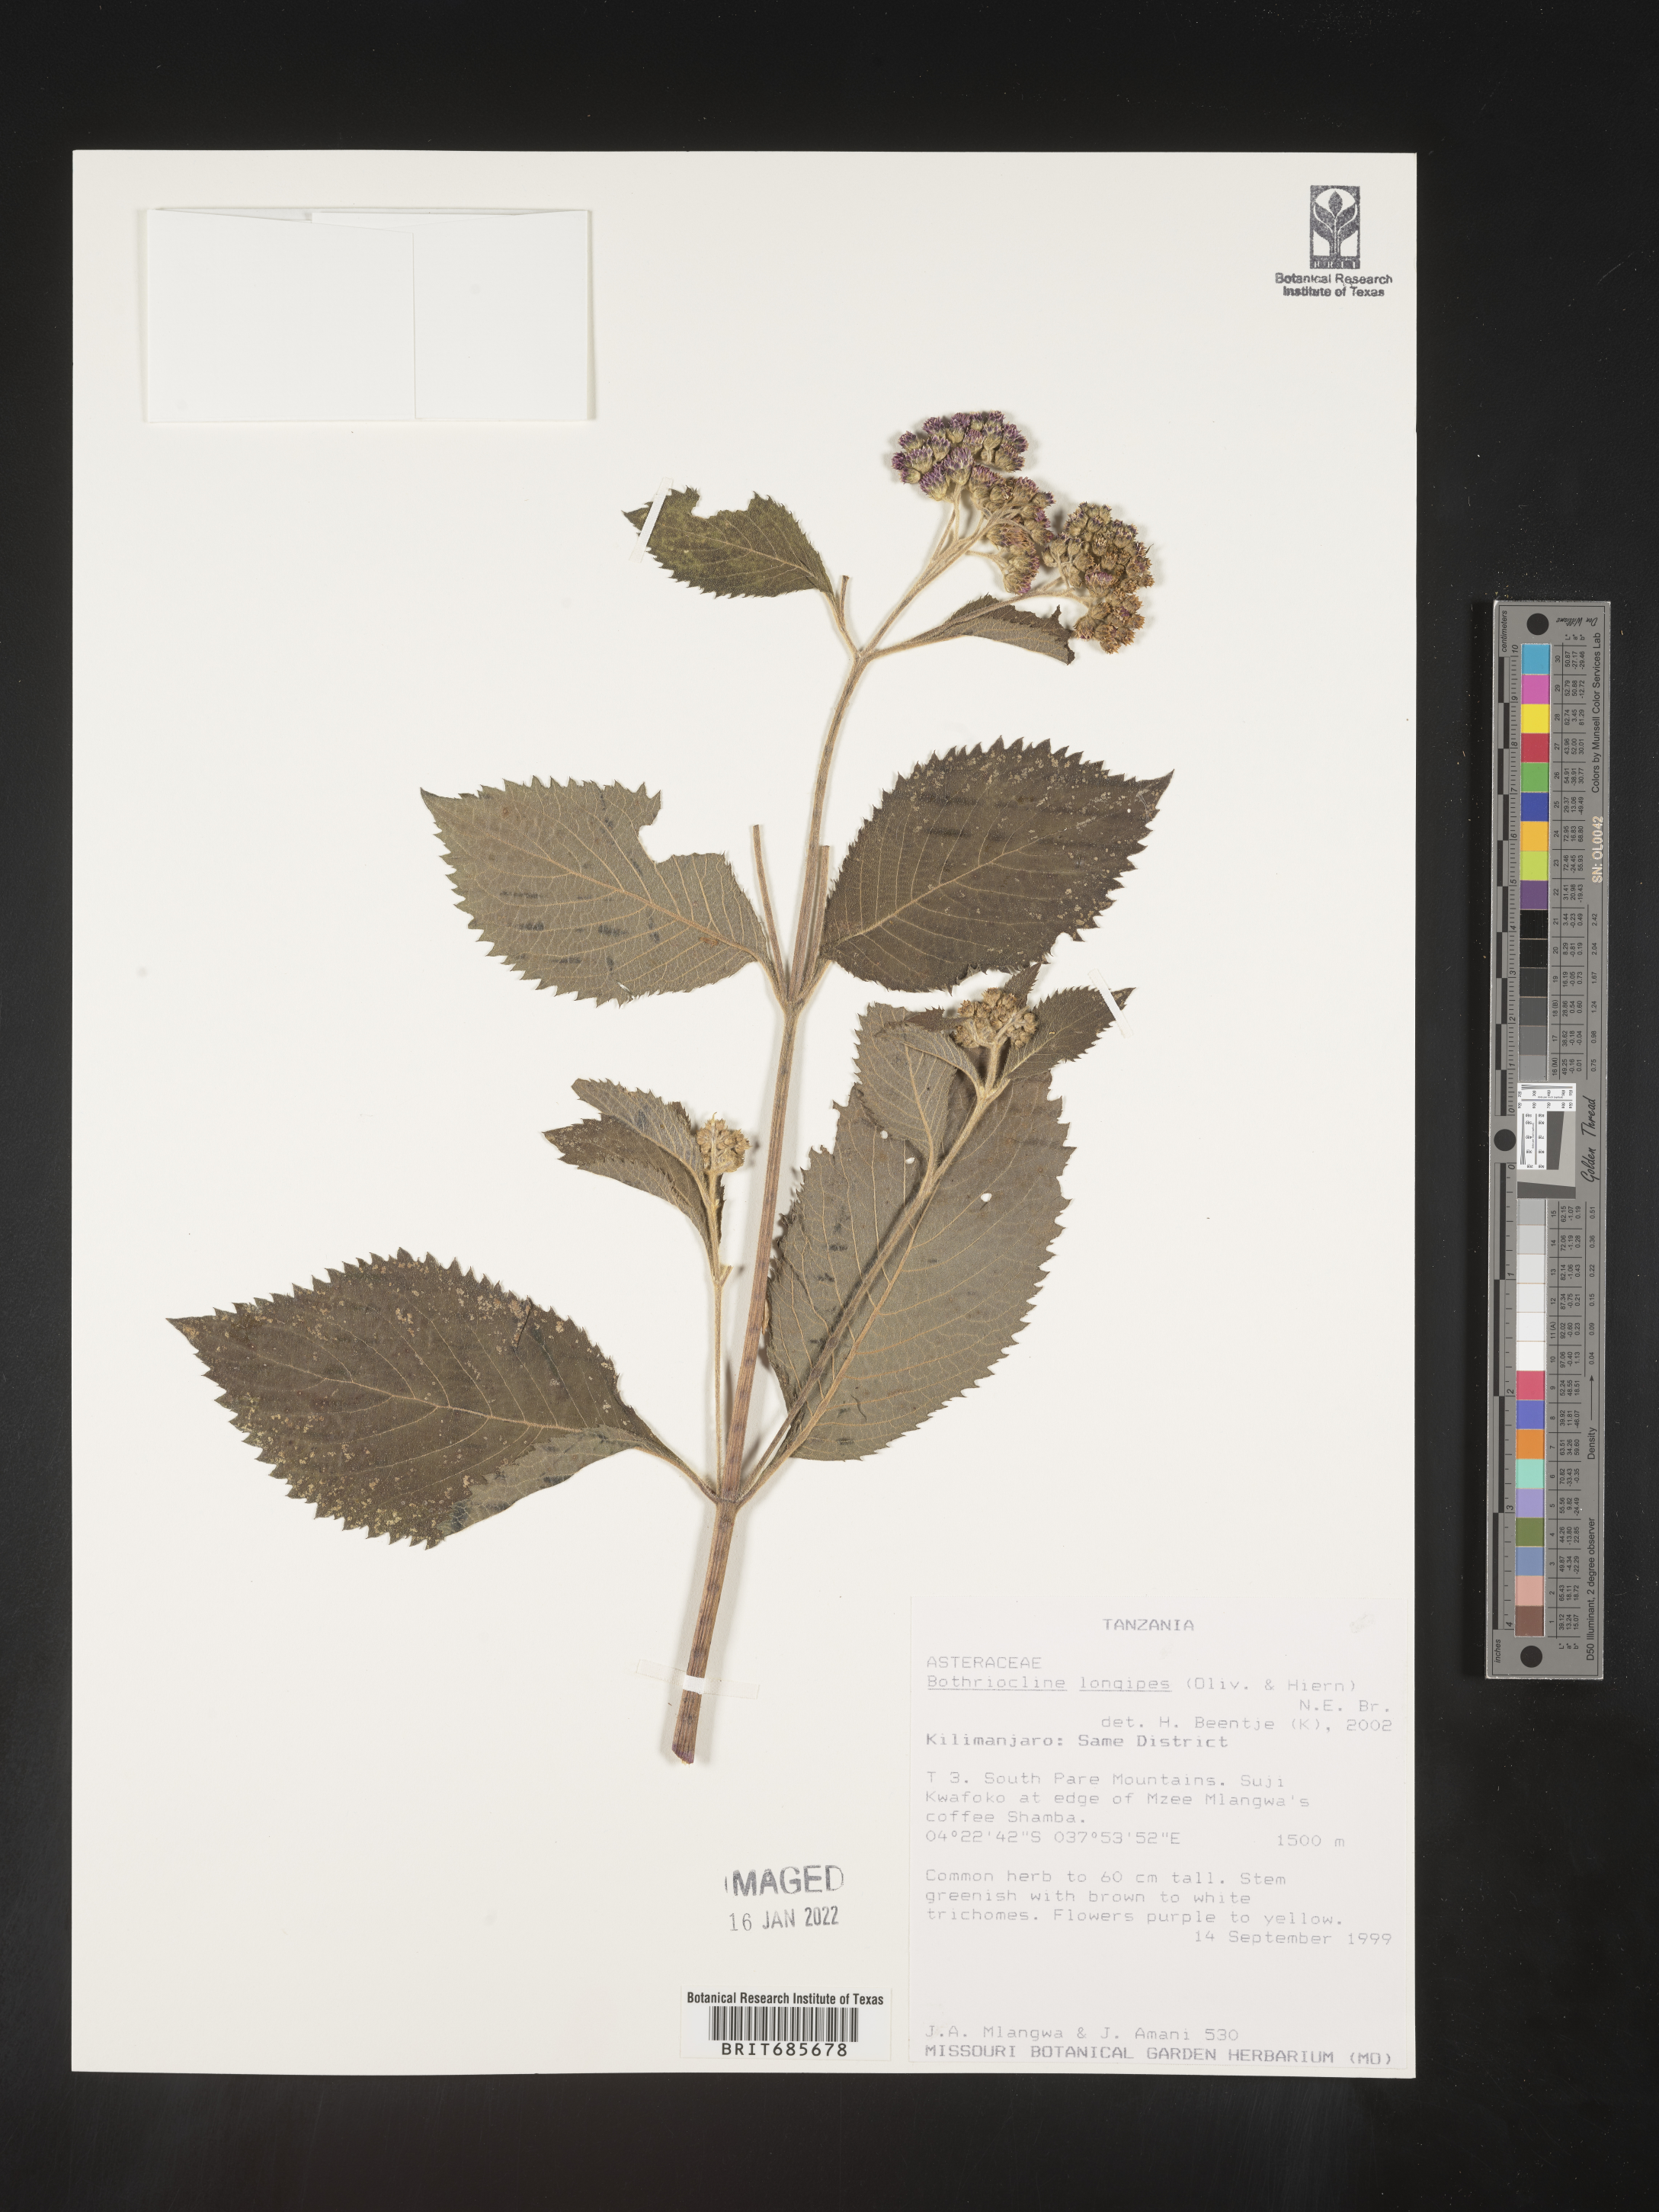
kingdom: Plantae
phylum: Tracheophyta
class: Magnoliopsida
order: Asterales
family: Asteraceae
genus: Bothriocline
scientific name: Bothriocline
